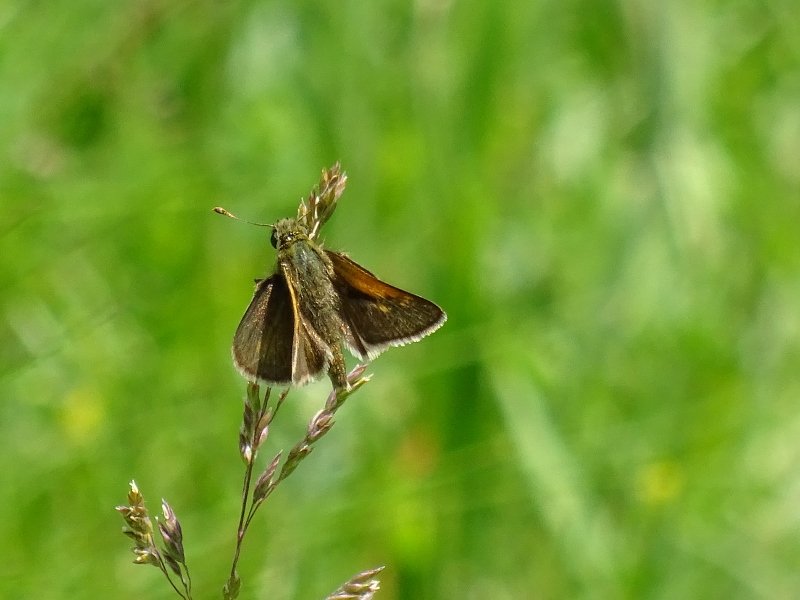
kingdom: Animalia
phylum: Arthropoda
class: Insecta
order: Lepidoptera
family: Hesperiidae
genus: Polites
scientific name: Polites themistocles
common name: Tawny-edged Skipper
